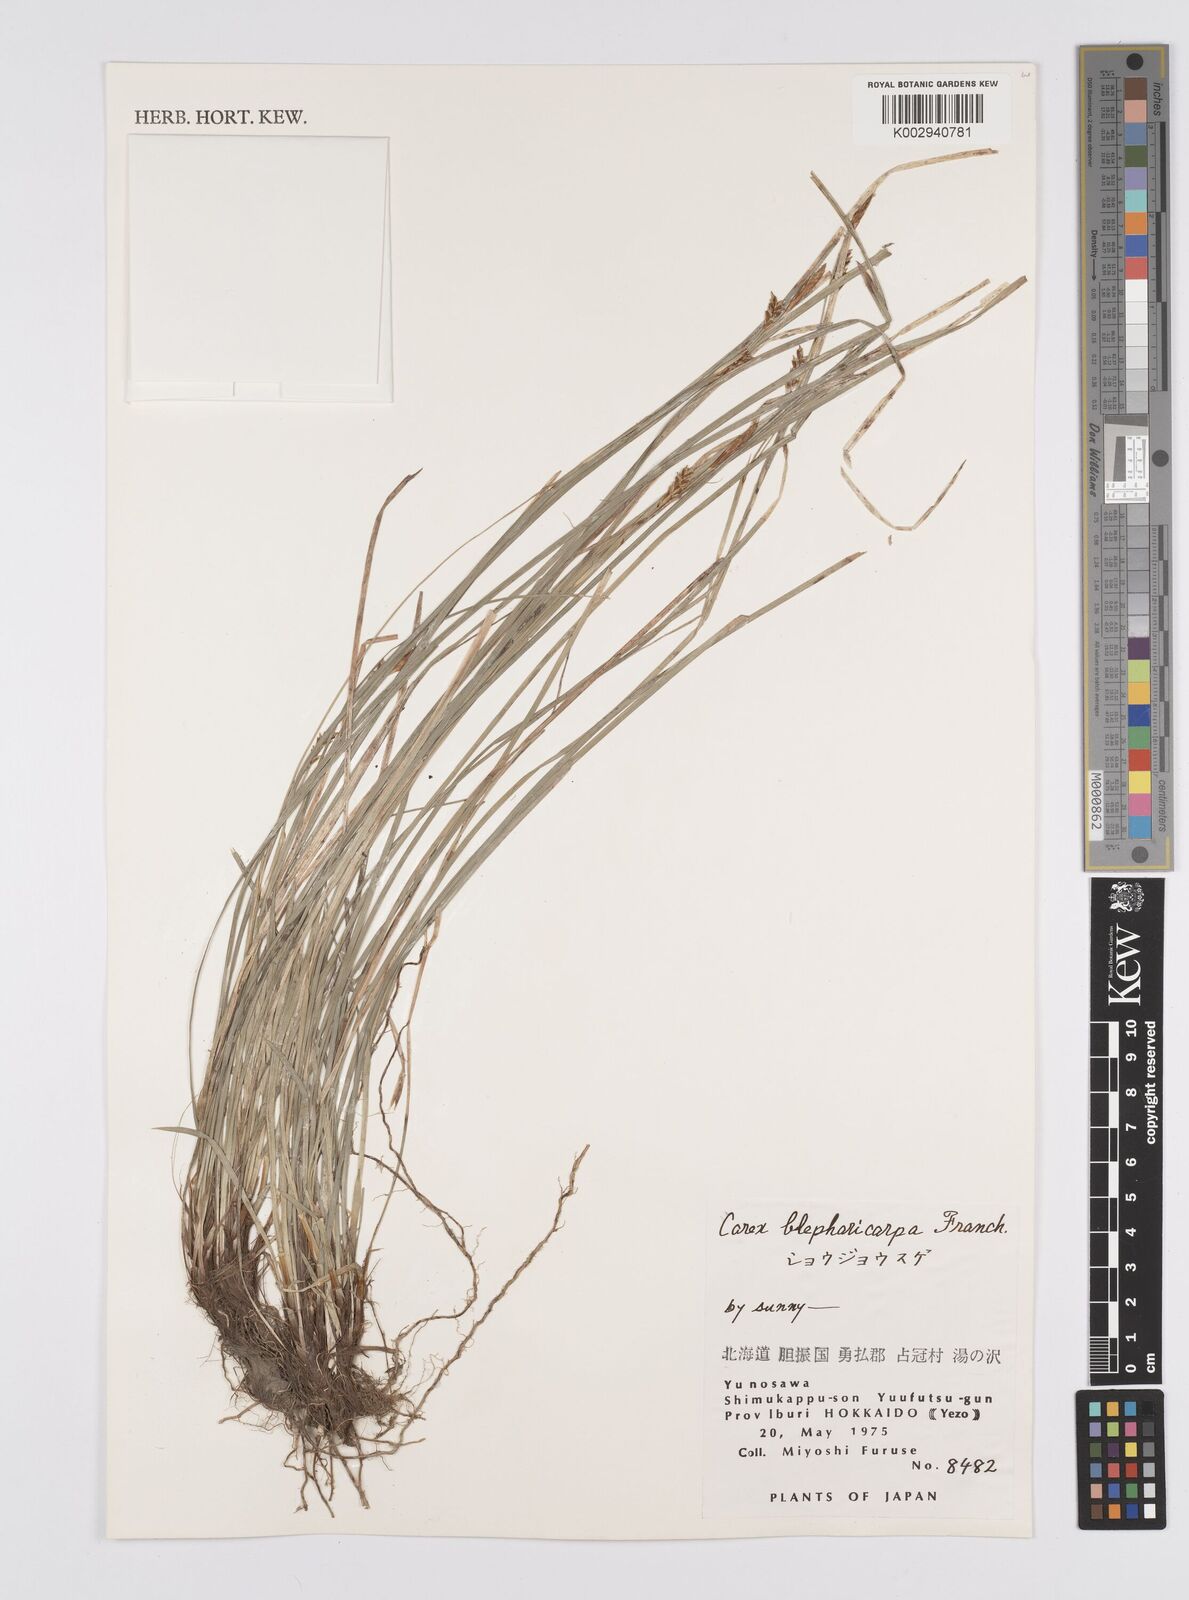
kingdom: Plantae
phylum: Tracheophyta
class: Liliopsida
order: Poales
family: Cyperaceae
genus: Carex
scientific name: Carex blepharicarpa
